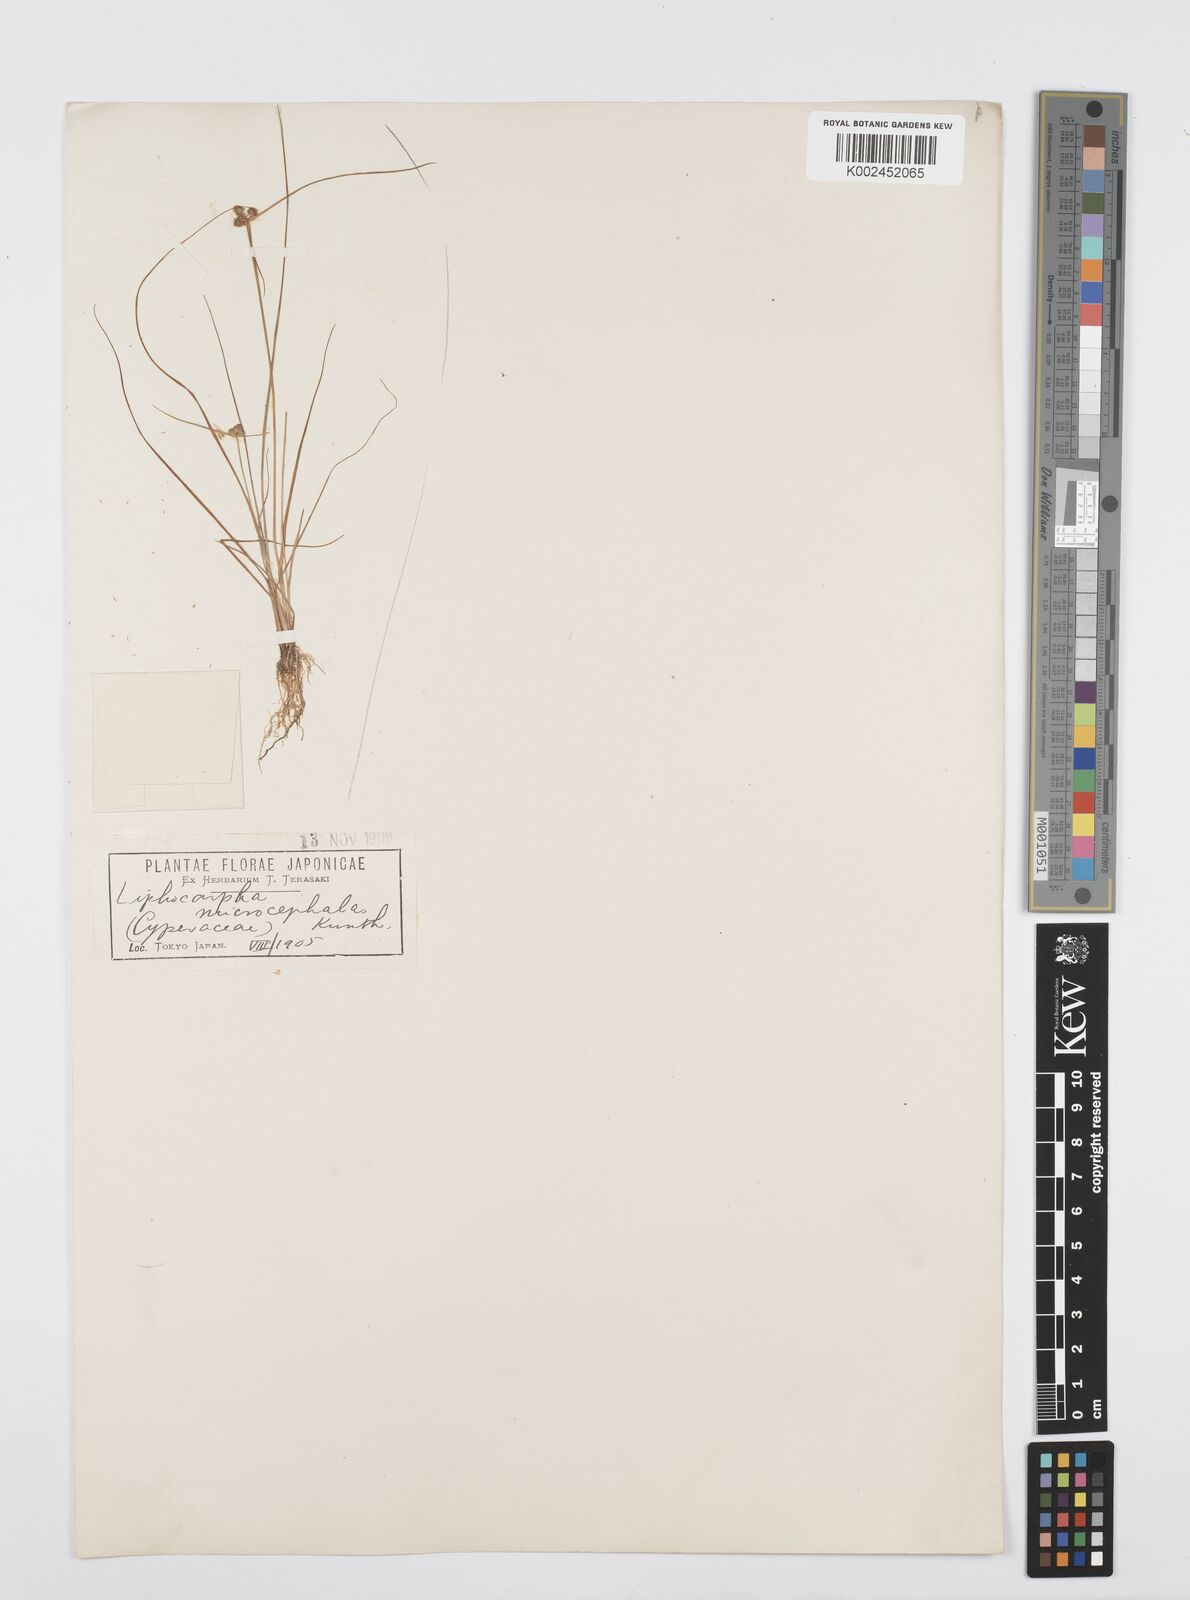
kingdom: Plantae
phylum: Tracheophyta
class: Liliopsida
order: Poales
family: Cyperaceae
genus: Cyperus
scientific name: Cyperus microcephalus
